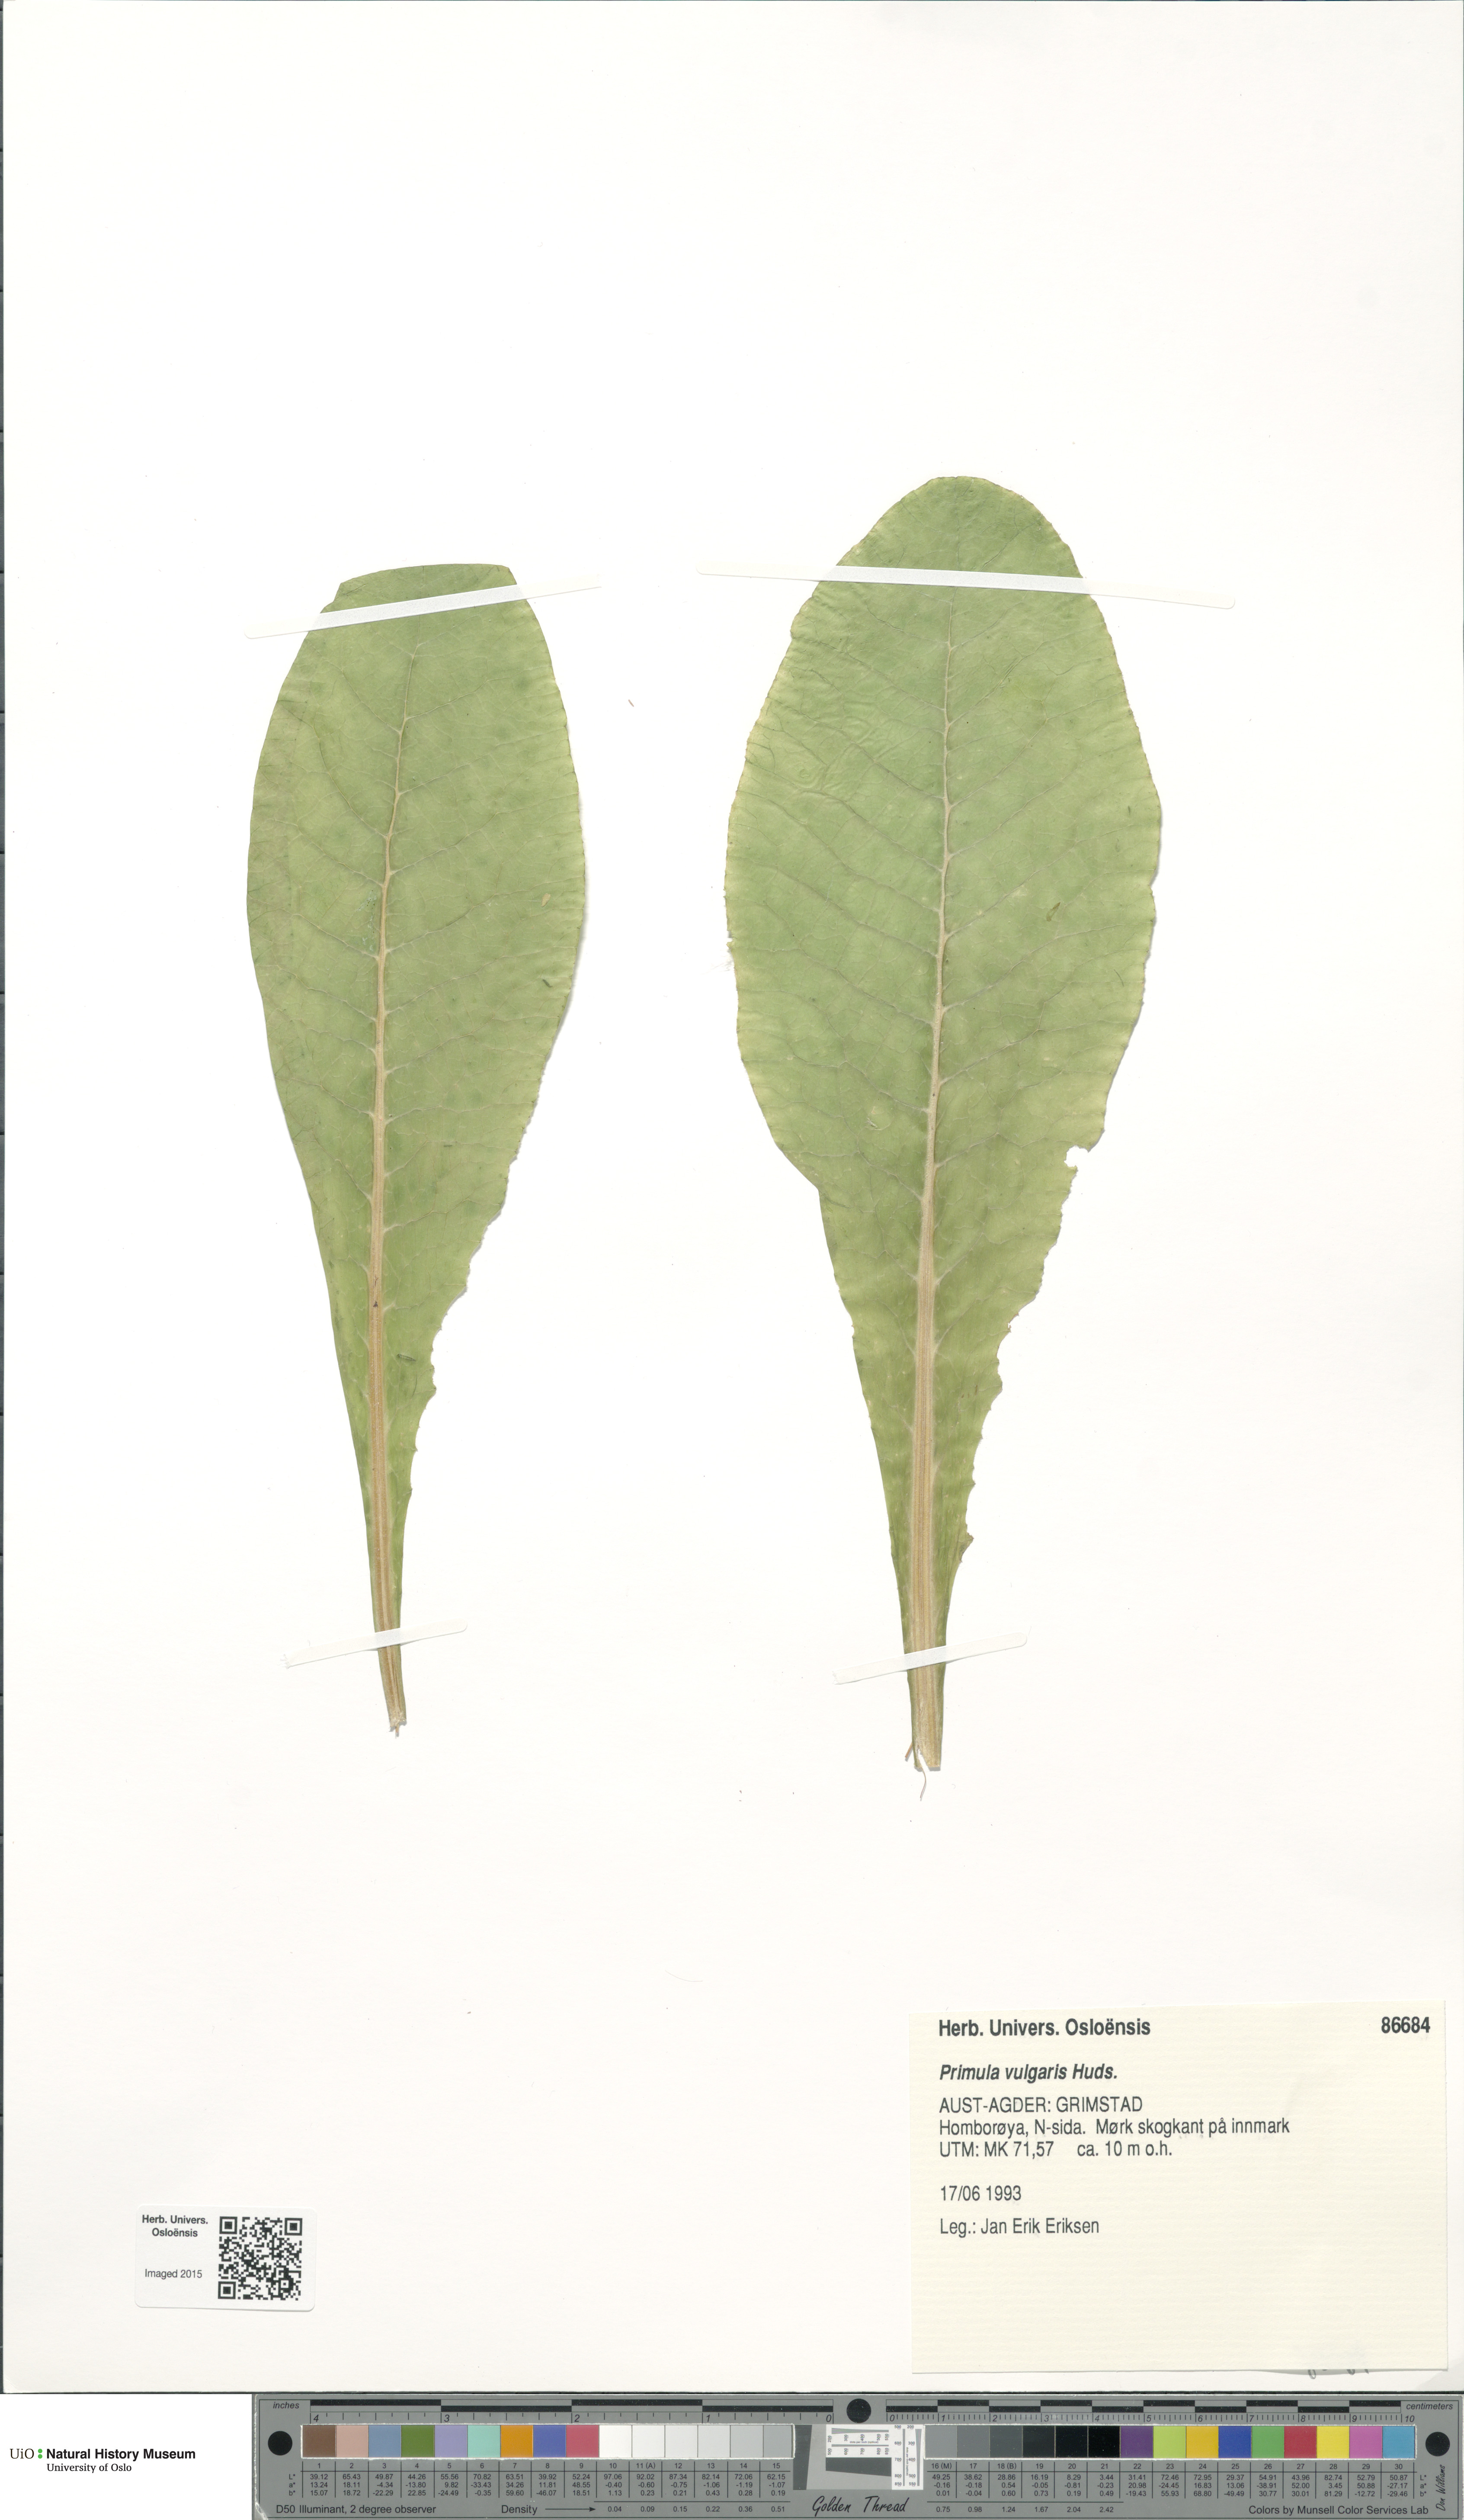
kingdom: Plantae
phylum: Tracheophyta
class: Magnoliopsida
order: Ericales
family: Primulaceae
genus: Primula
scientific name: Primula vulgaris
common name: Primrose
